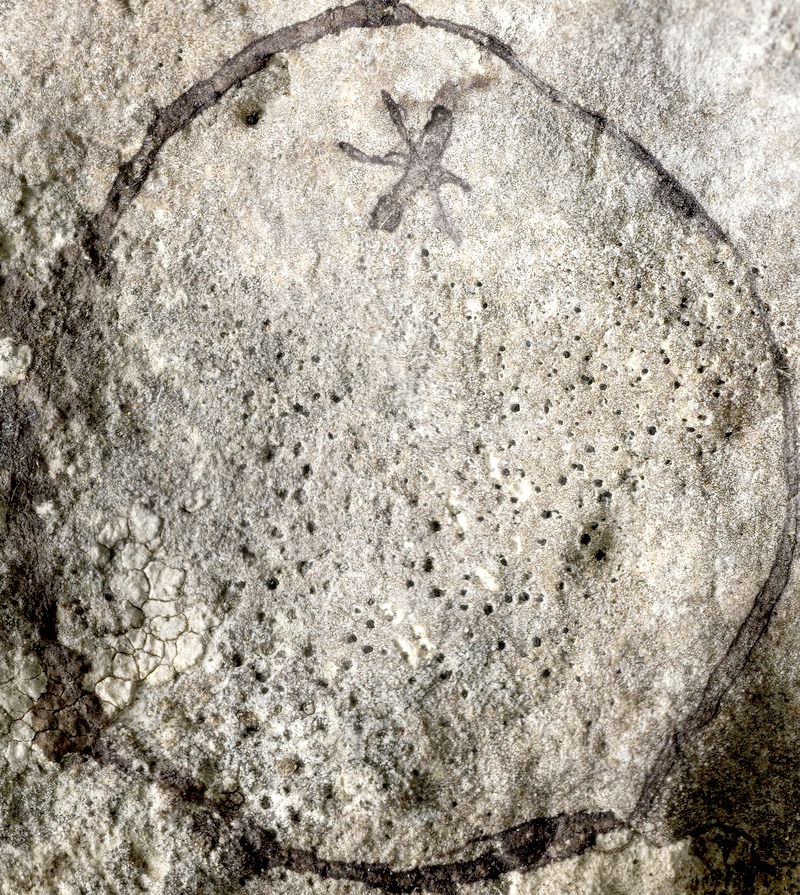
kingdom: Fungi
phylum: Ascomycota
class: Dothideomycetes
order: Trypetheliales
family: Polycoccaceae
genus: Polycoccum
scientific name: Polycoccum marmoratum
